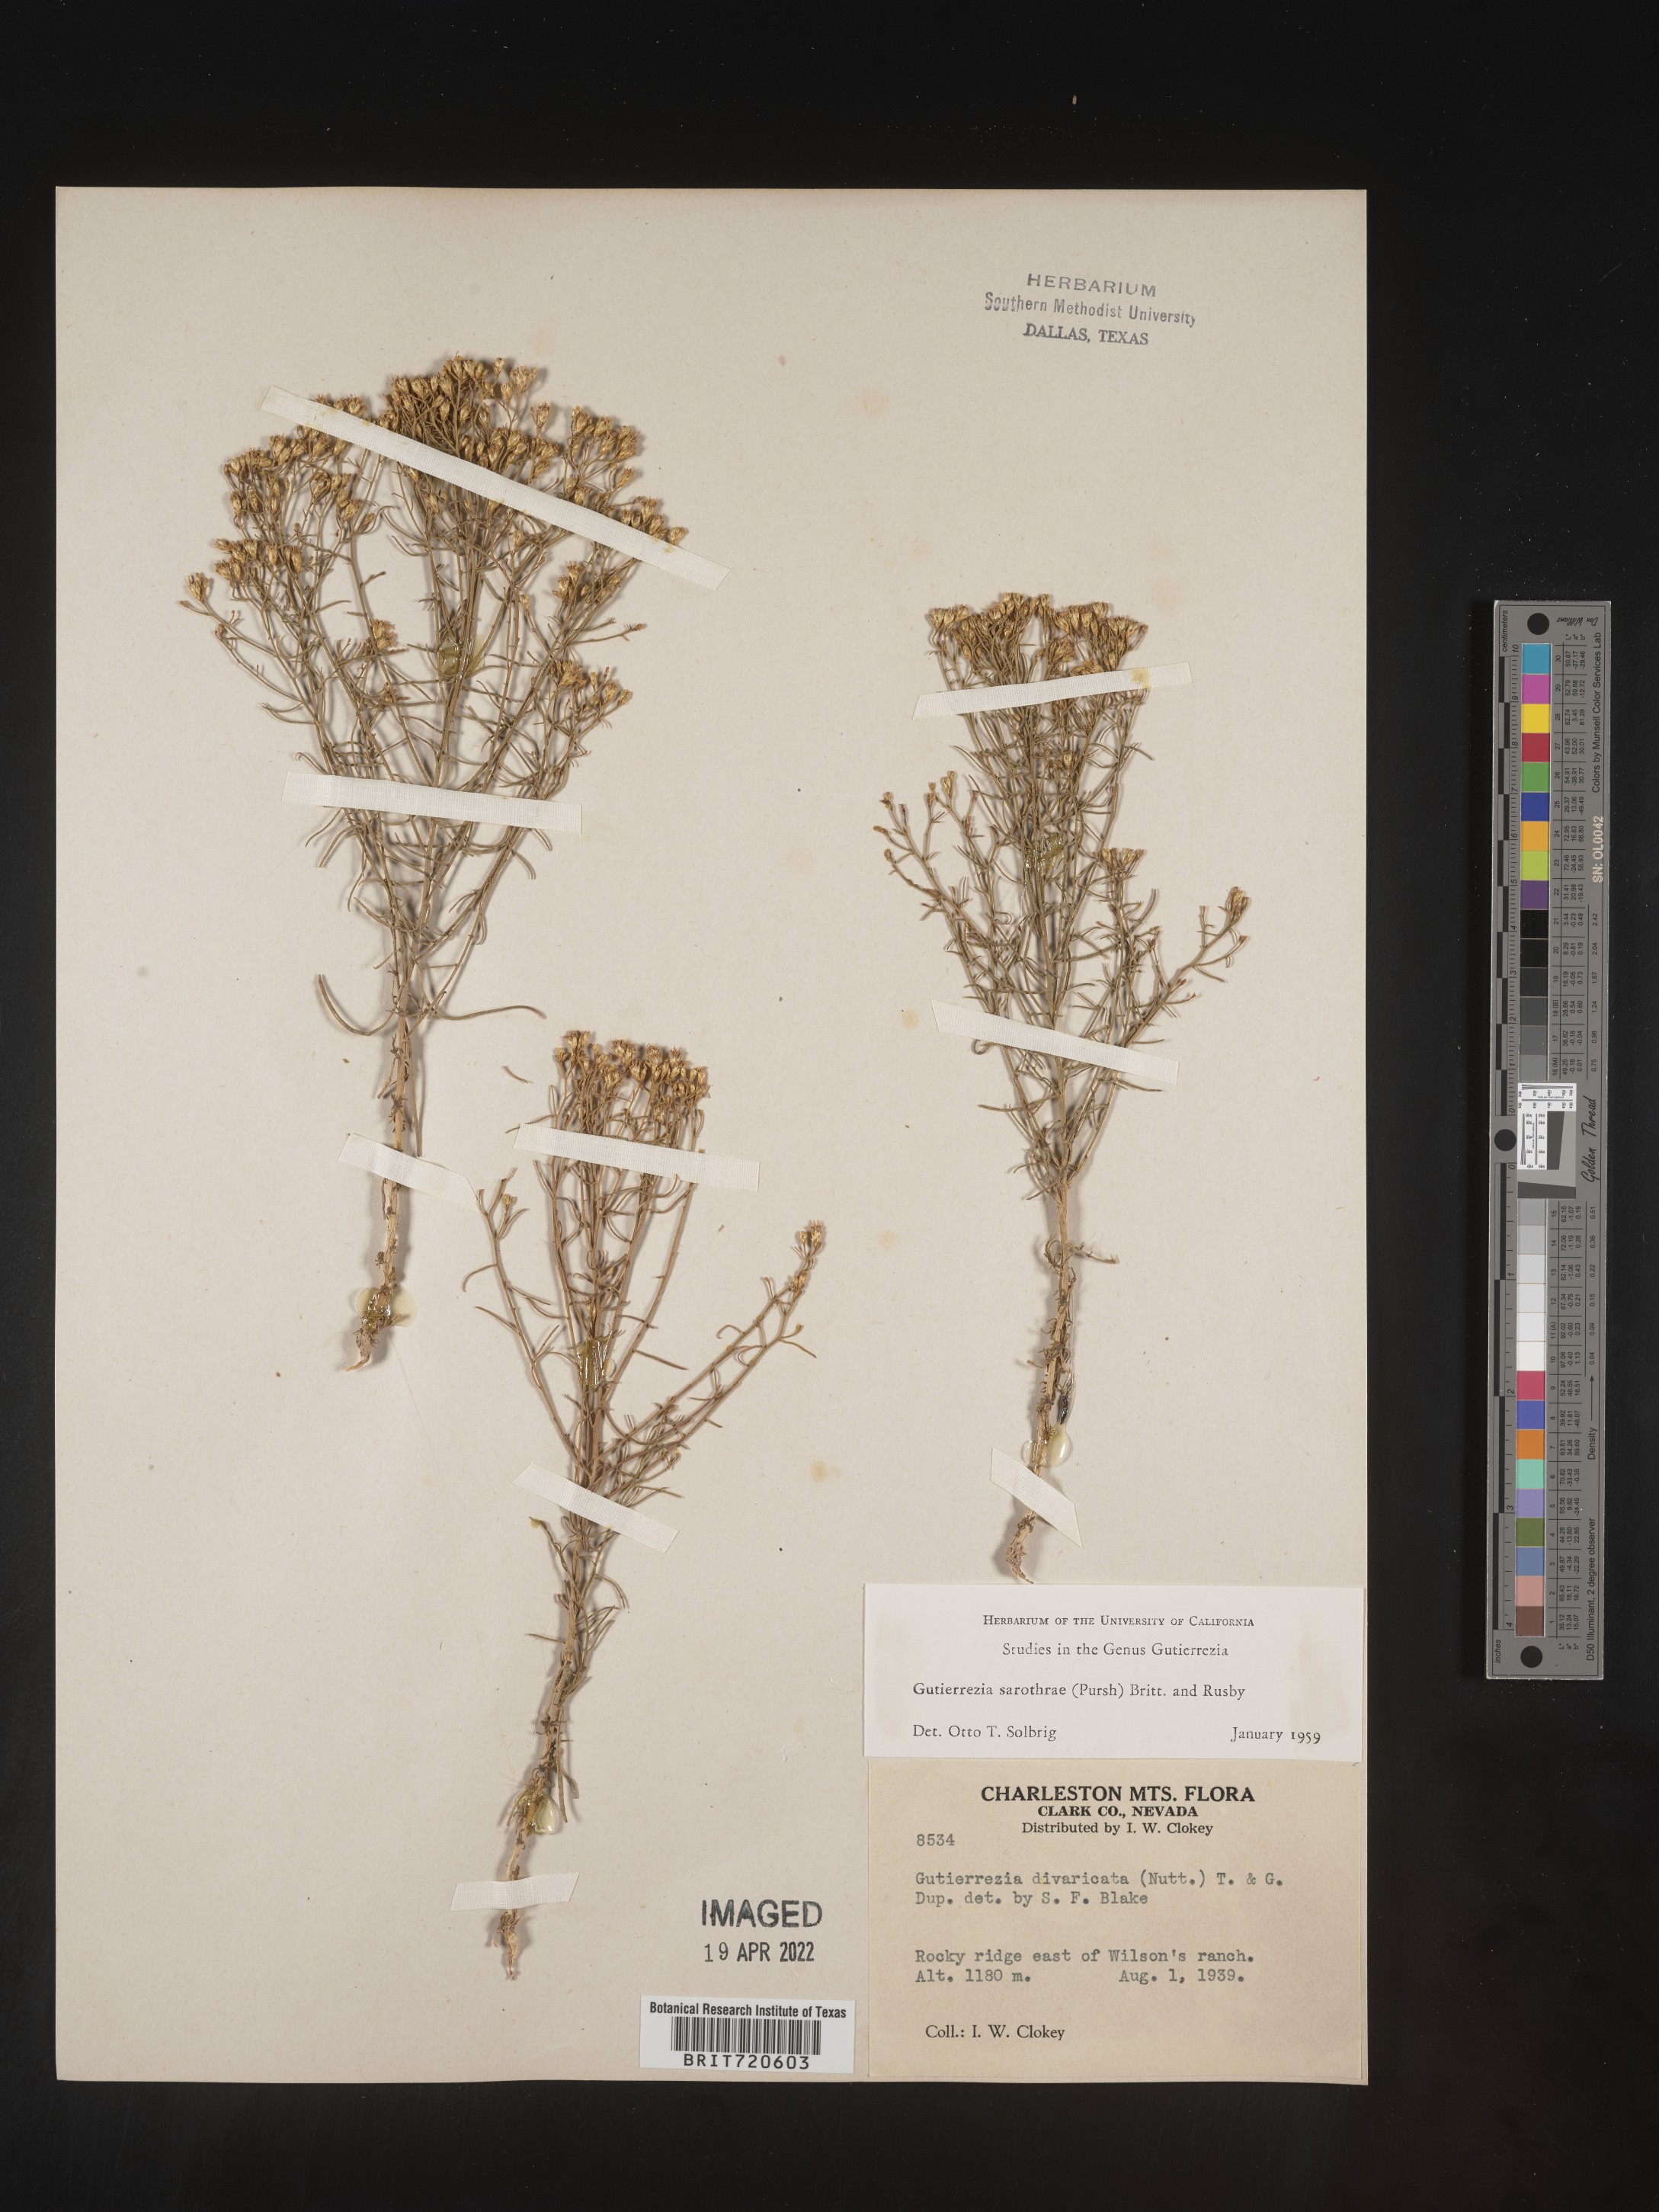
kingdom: Plantae
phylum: Tracheophyta
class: Magnoliopsida
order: Asterales
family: Asteraceae
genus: Gutierrezia
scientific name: Gutierrezia sarothrae
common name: Broom snakeweed
